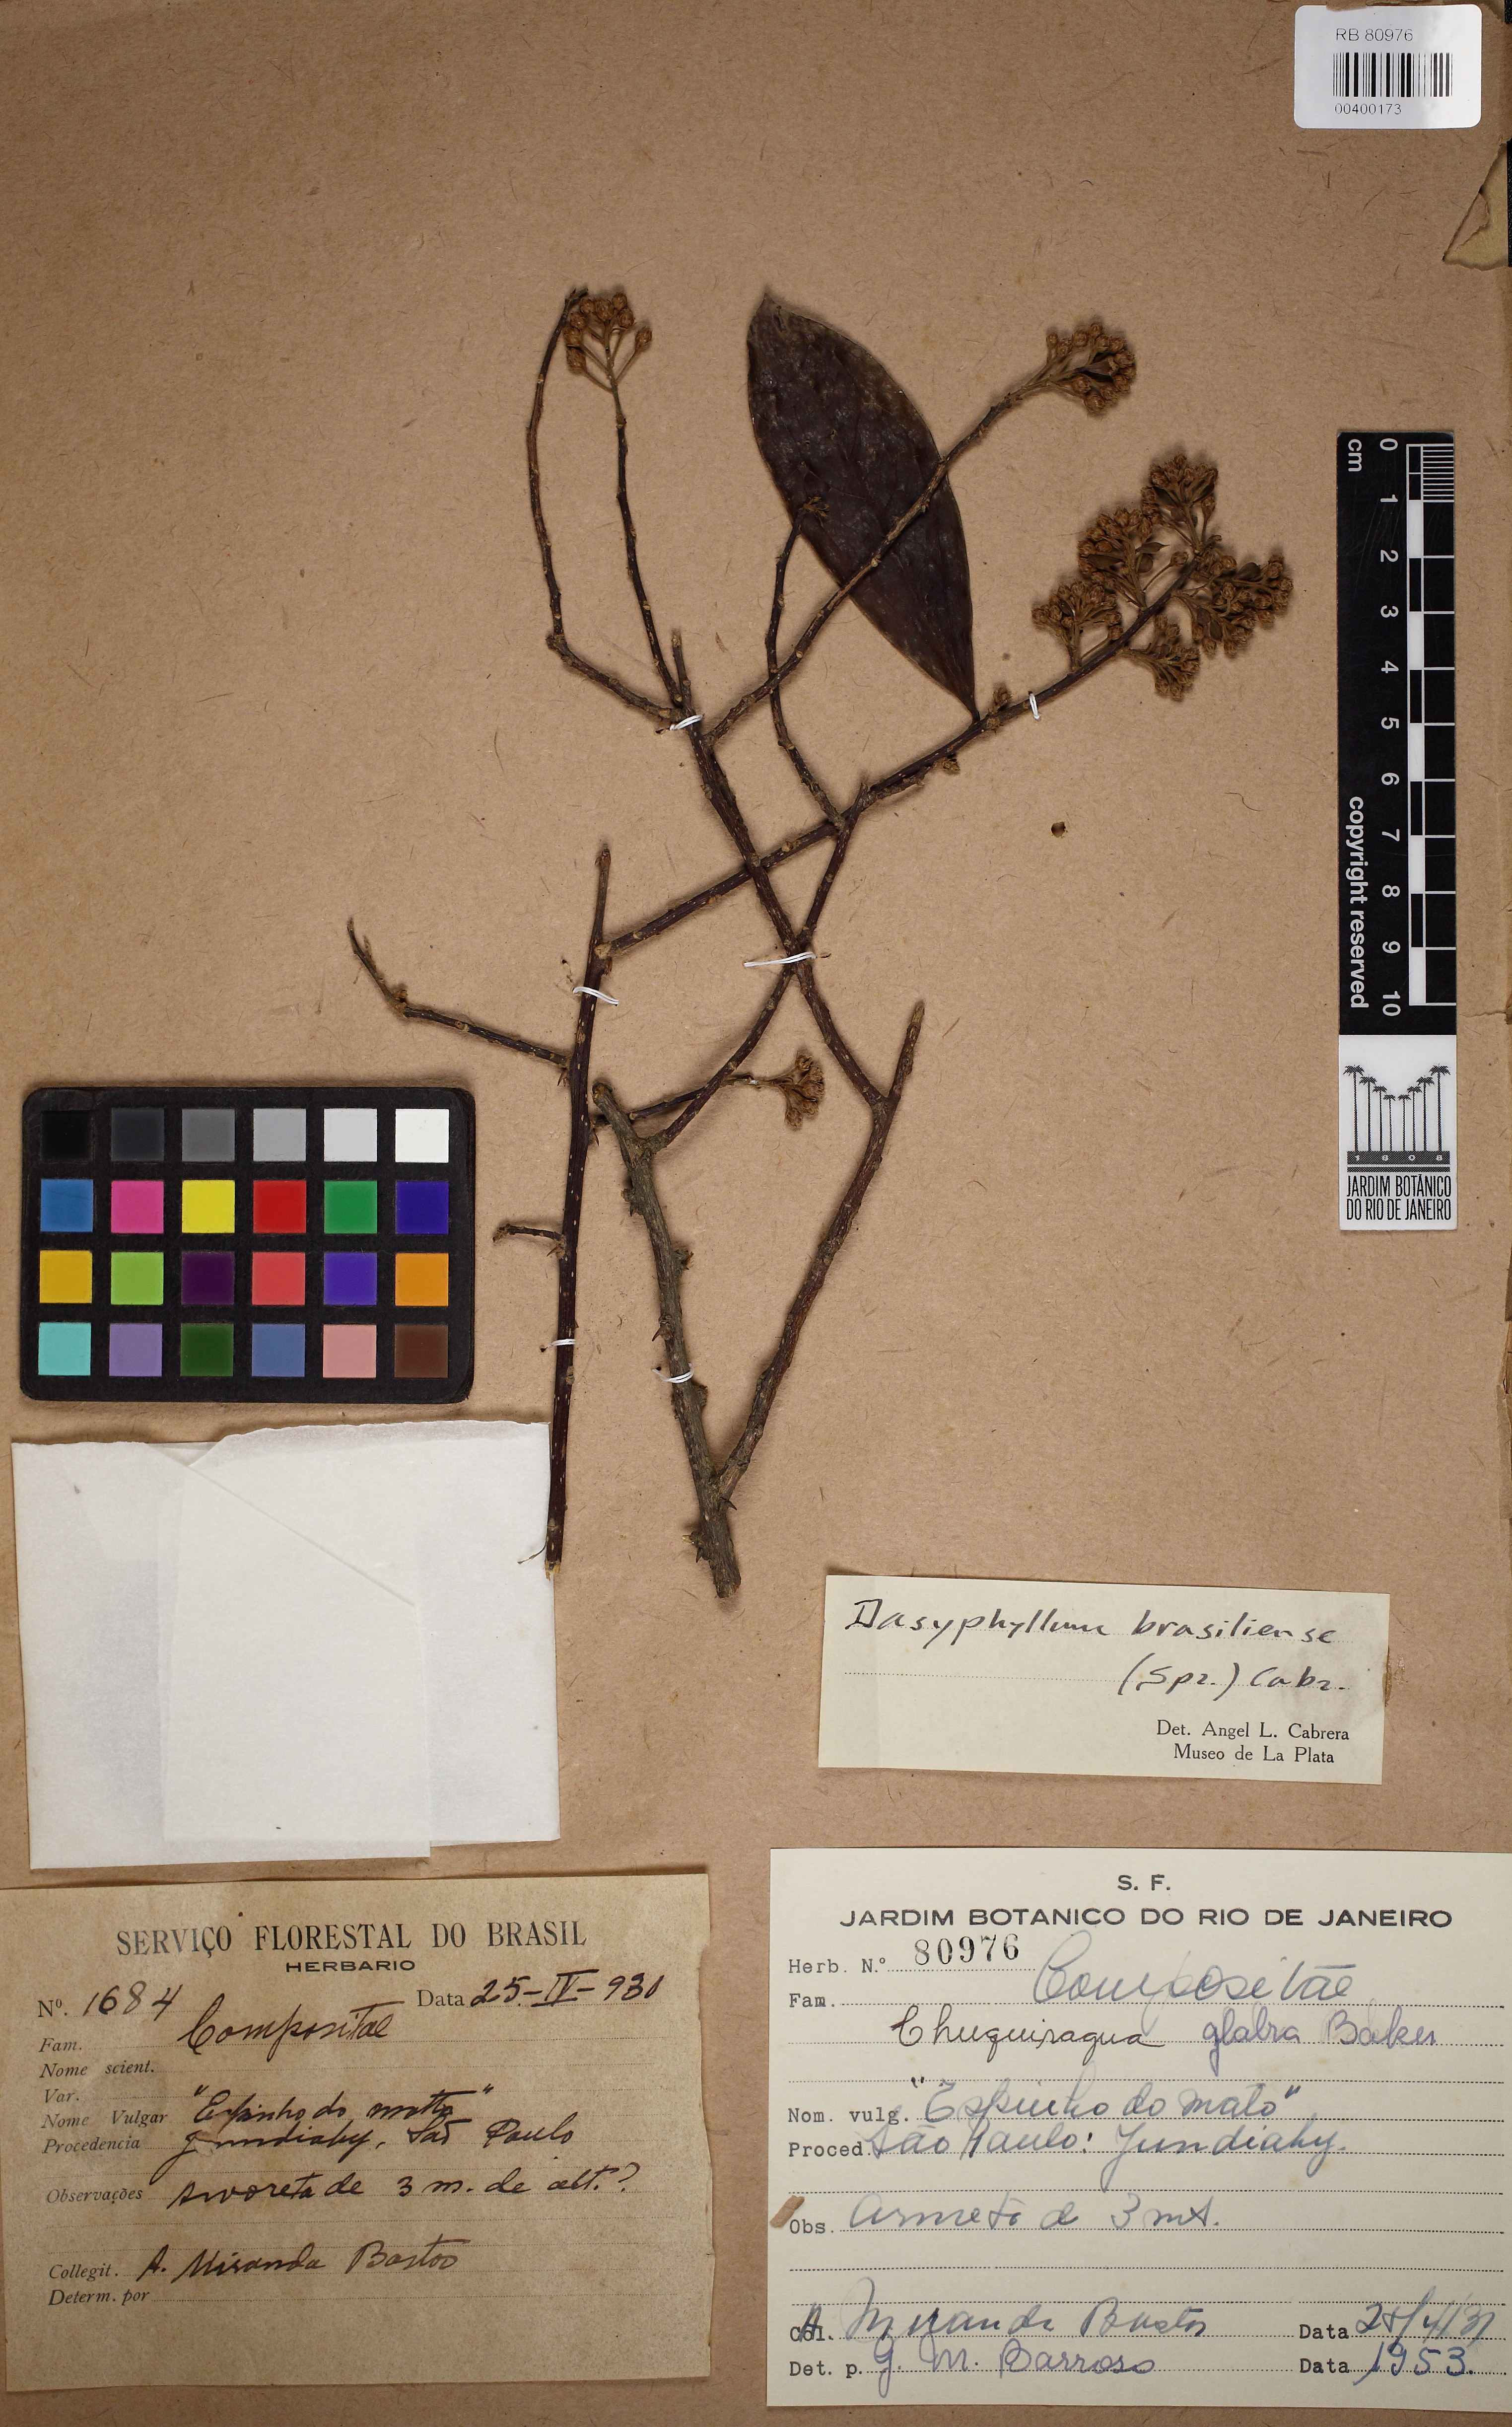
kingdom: Plantae
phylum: Tracheophyta
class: Magnoliopsida
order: Asterales
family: Asteraceae
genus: Dasyphyllum
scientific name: Dasyphyllum brasiliense
